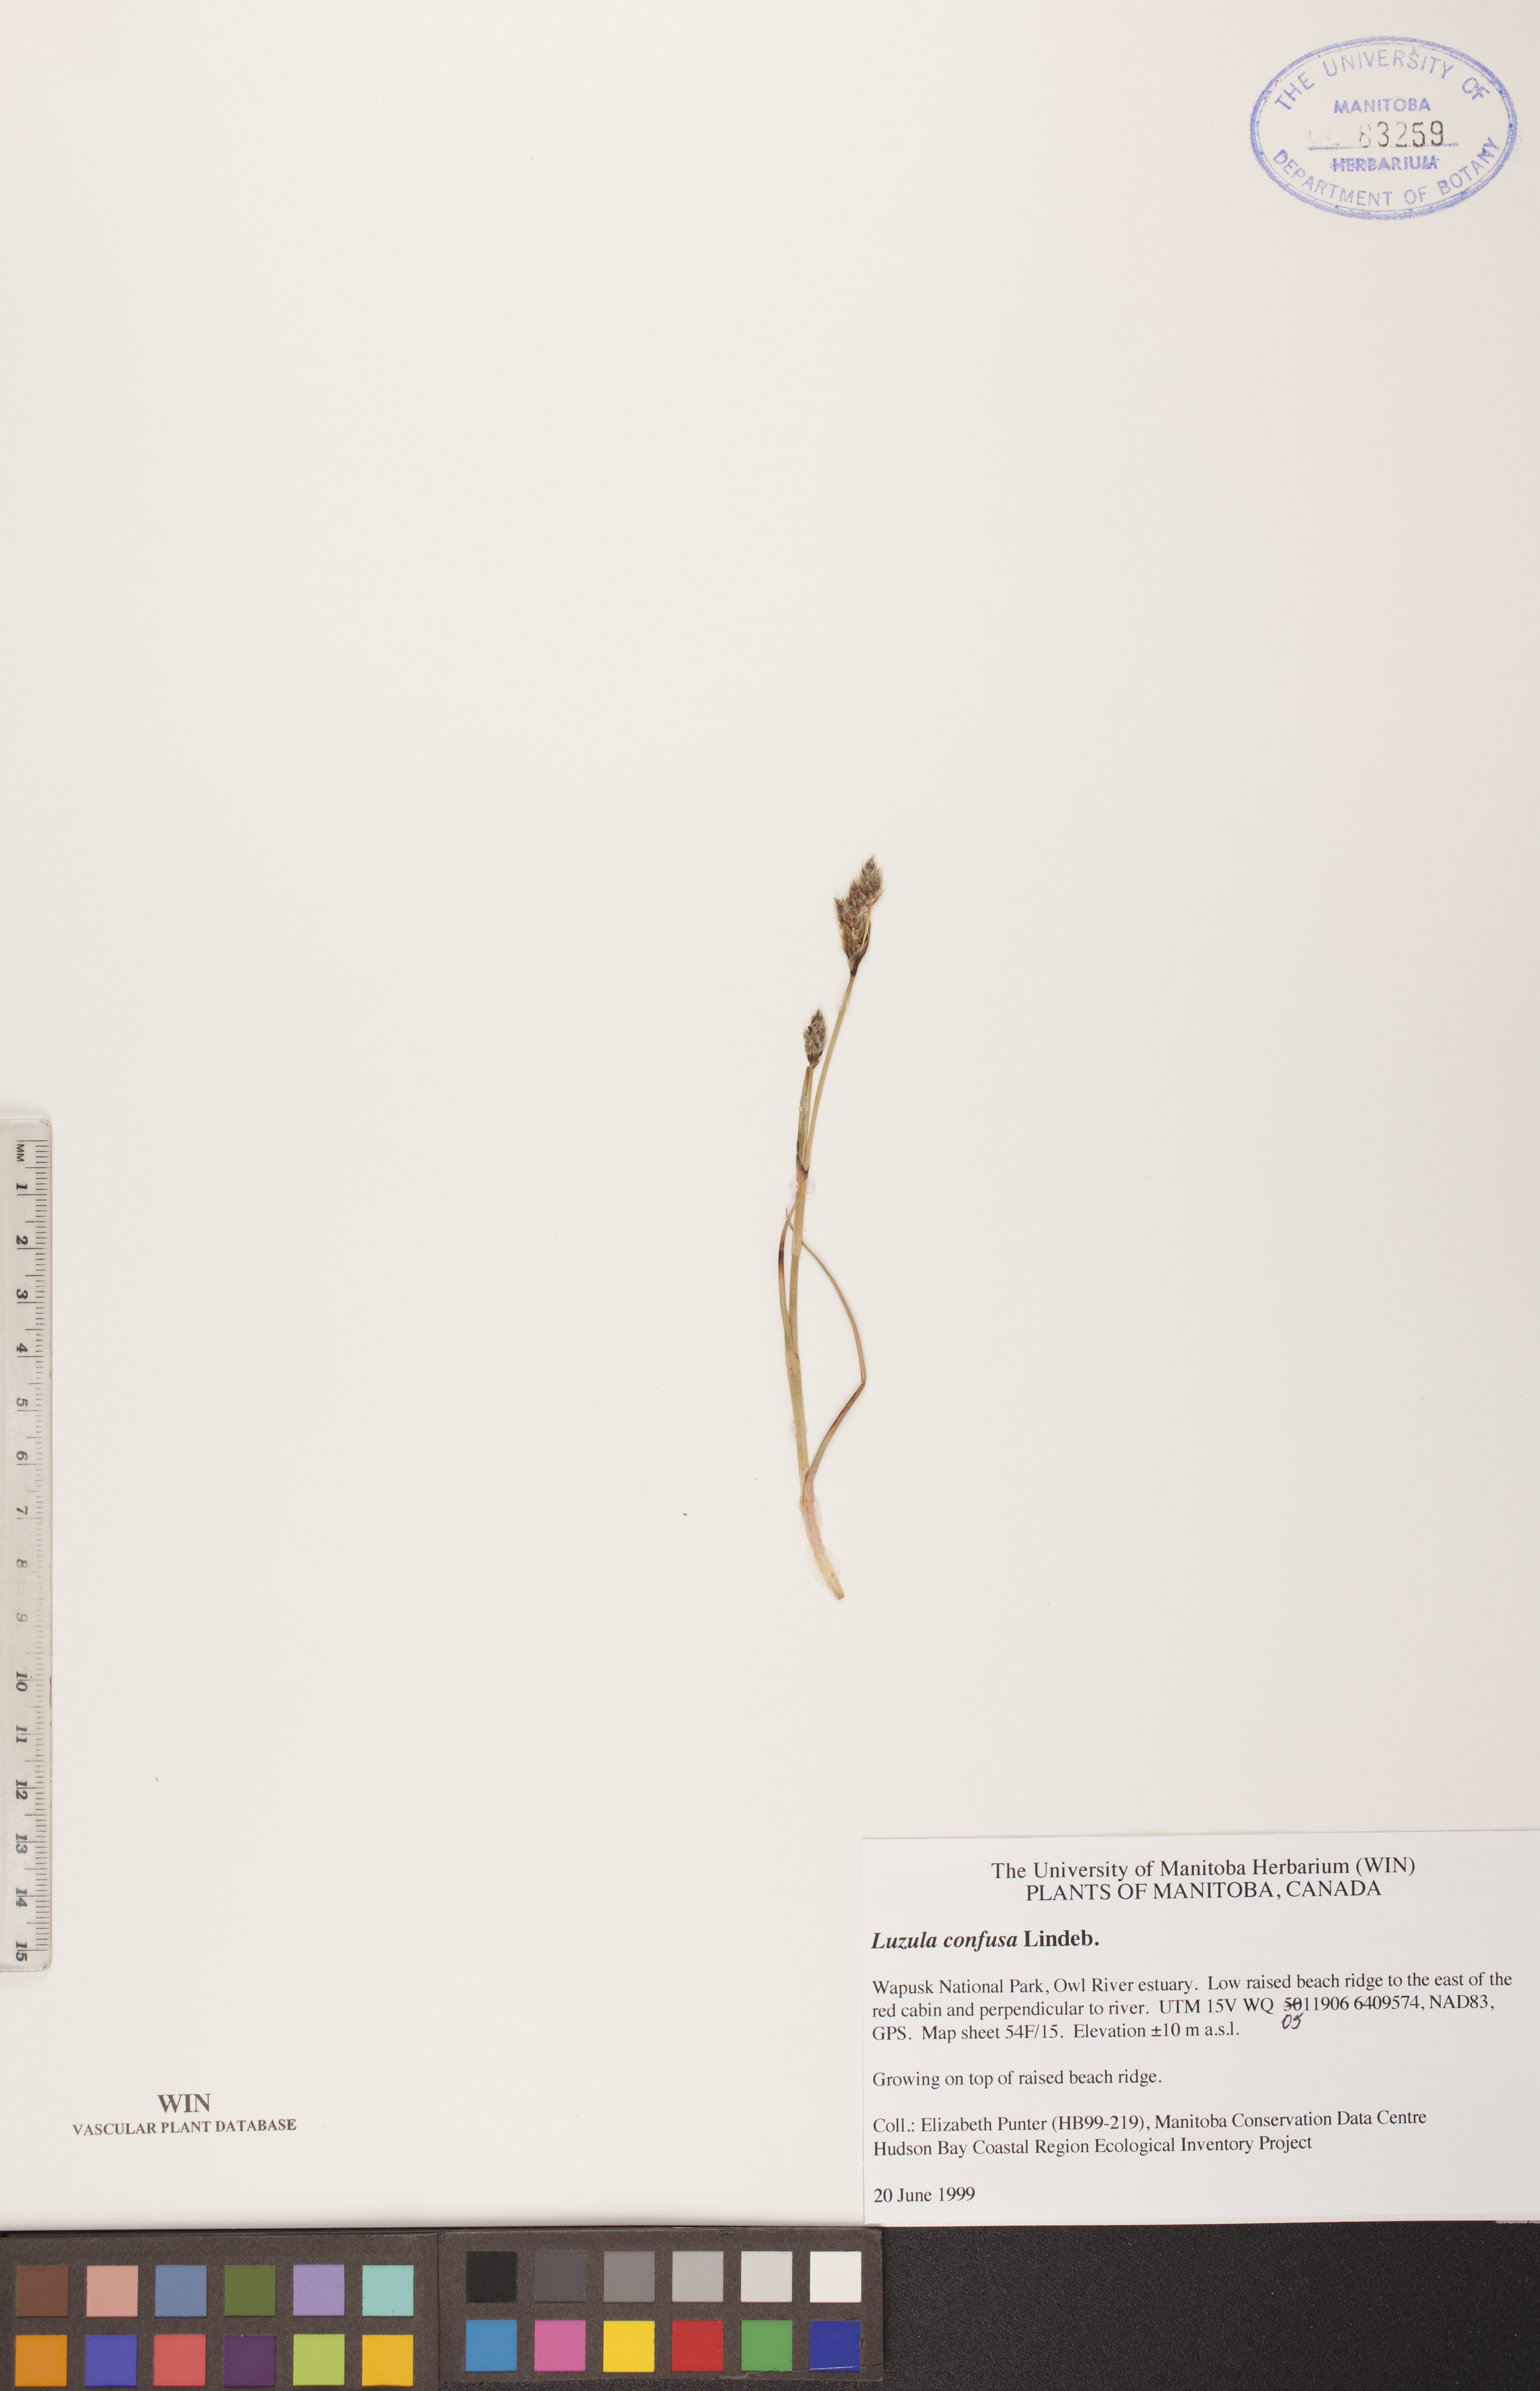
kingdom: Plantae
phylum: Tracheophyta
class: Liliopsida
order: Poales
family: Juncaceae
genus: Luzula
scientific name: Luzula confusa
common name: Northern wood rush
